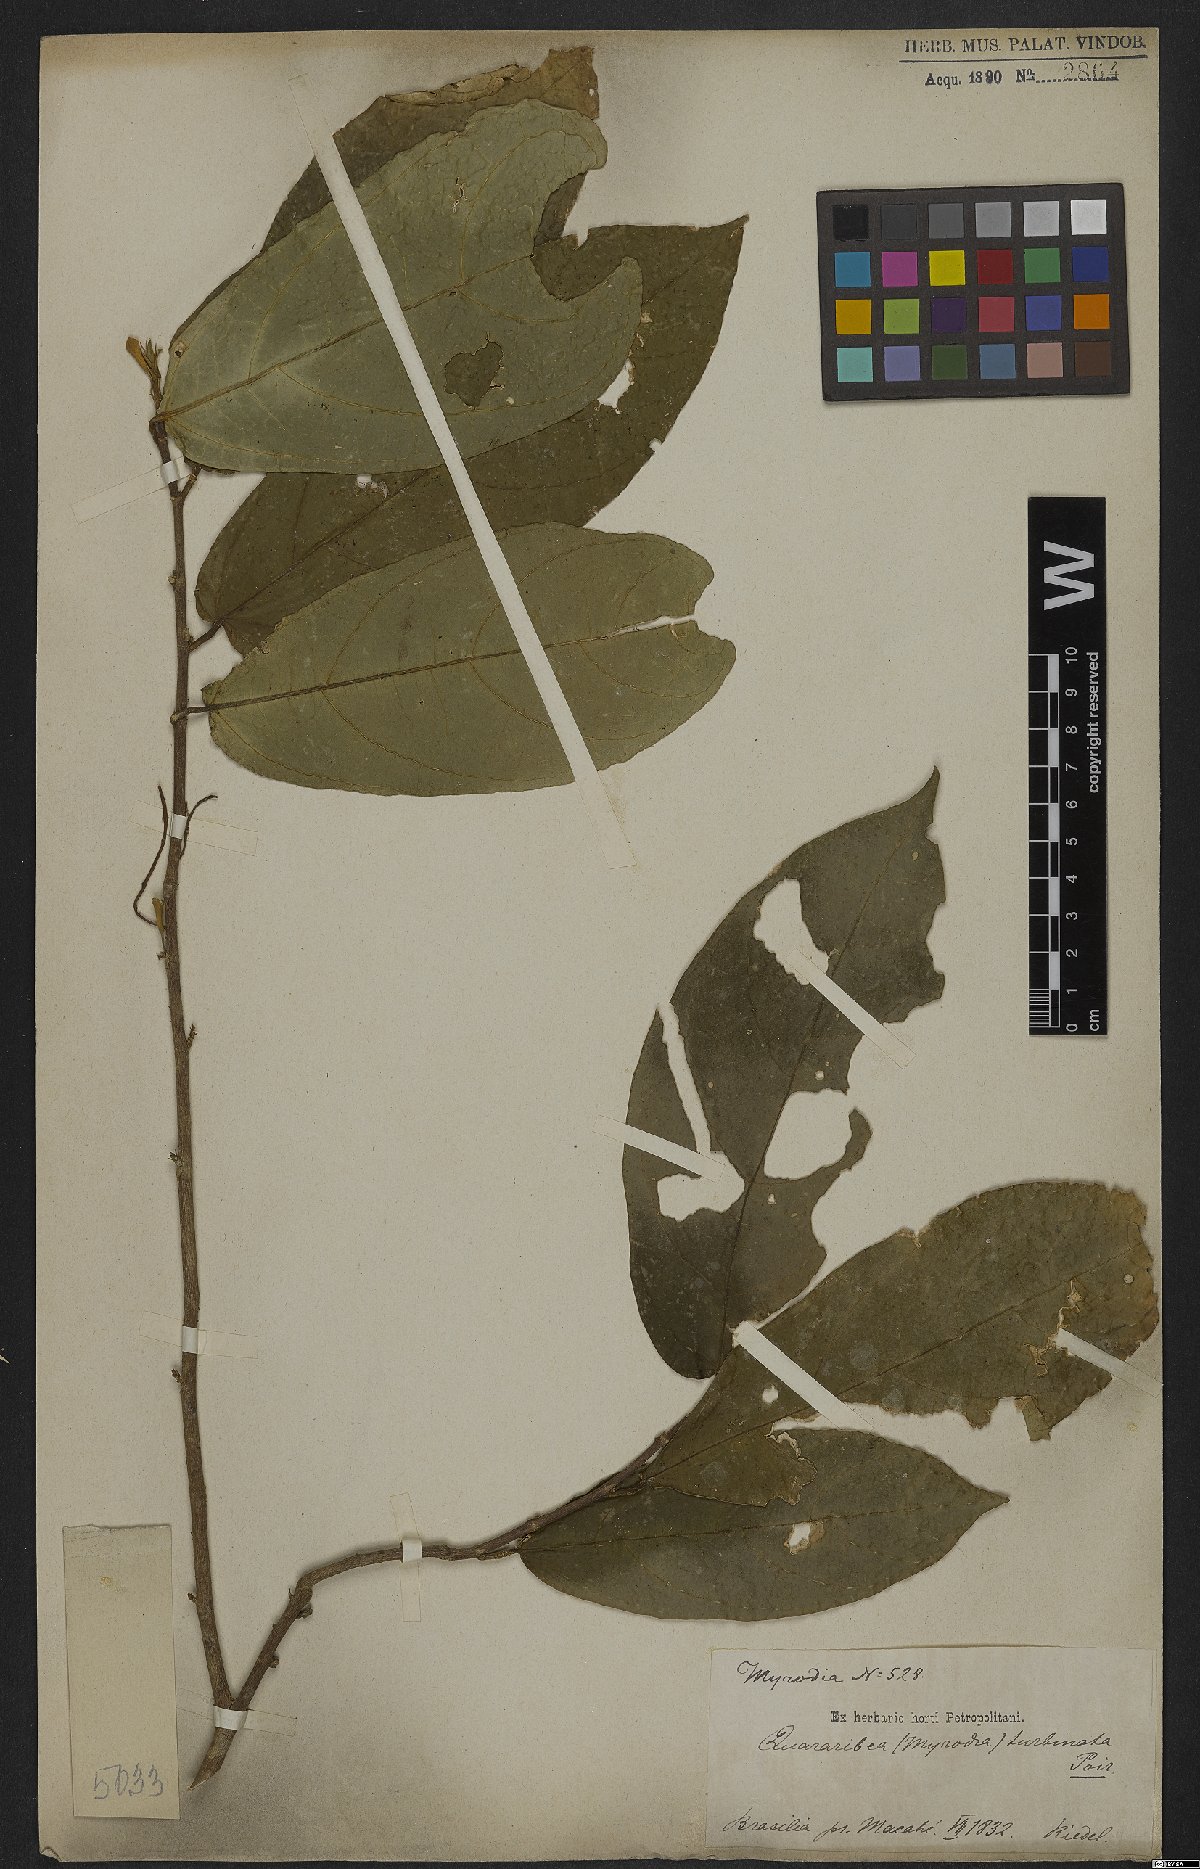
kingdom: Plantae
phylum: Tracheophyta
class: Magnoliopsida
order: Malvales
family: Malvaceae
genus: Quararibea
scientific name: Quararibea turbinata
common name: Swizzlestick-tree
